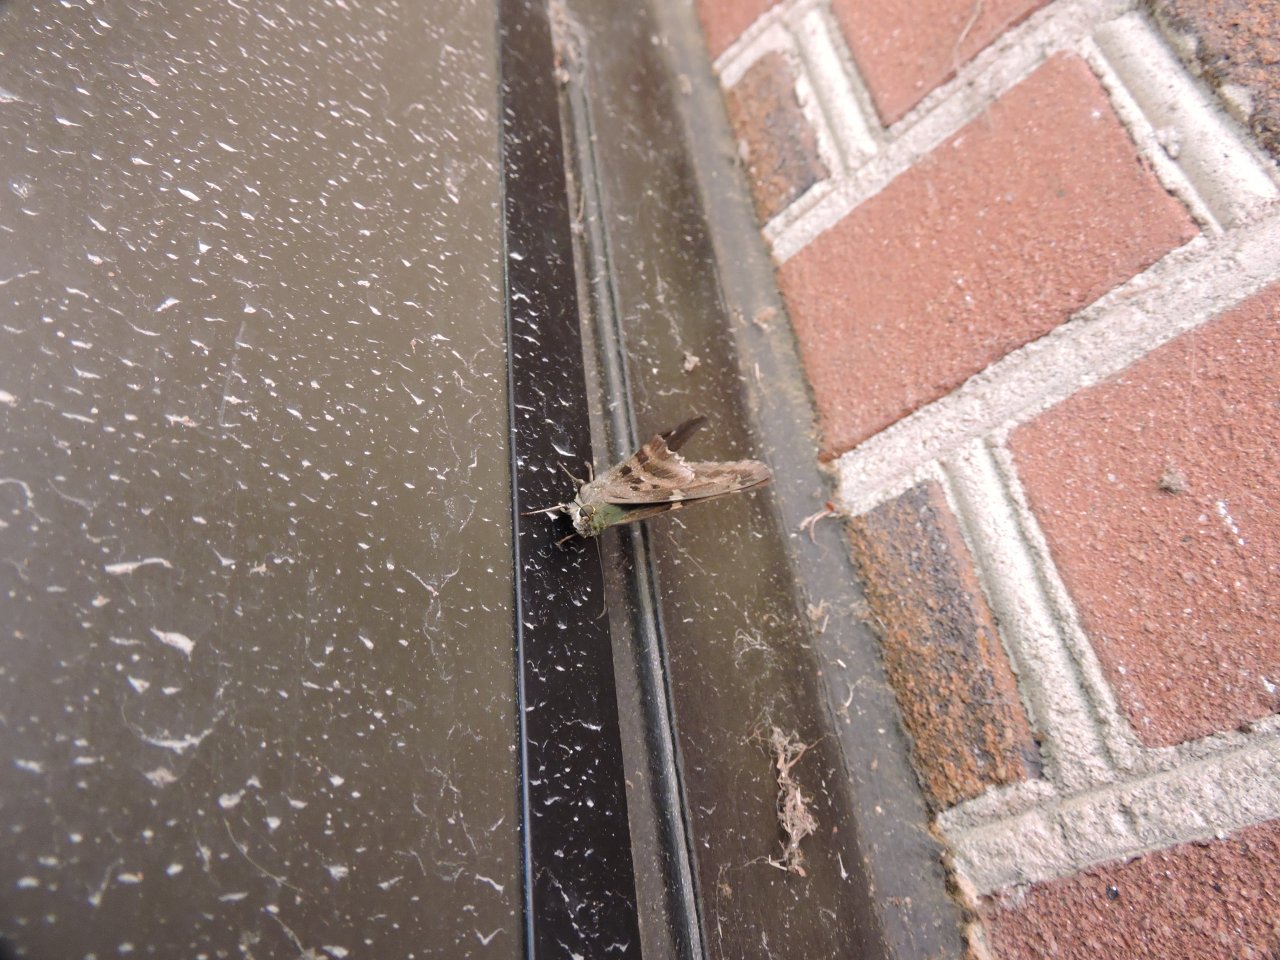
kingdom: Animalia
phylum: Arthropoda
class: Insecta
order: Lepidoptera
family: Hesperiidae
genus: Urbanus
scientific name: Urbanus proteus
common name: Long-tailed Skipper
